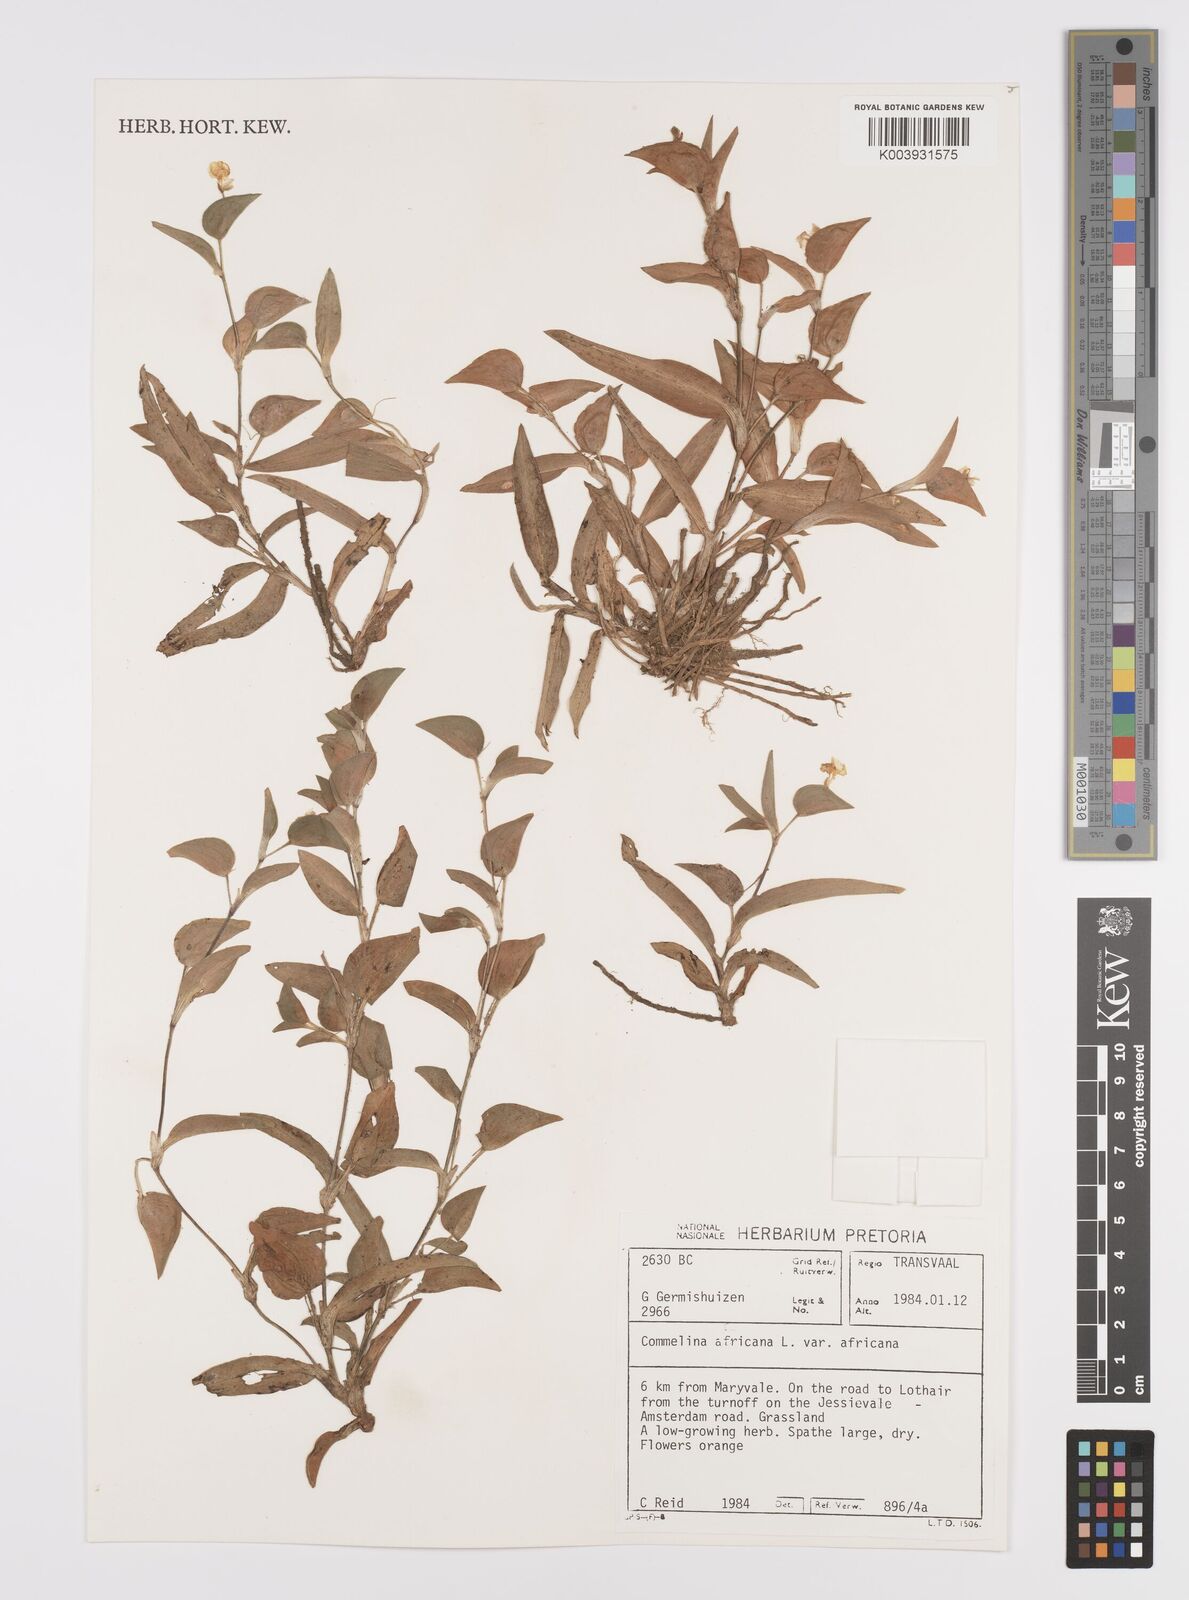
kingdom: Plantae
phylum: Tracheophyta
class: Liliopsida
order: Commelinales
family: Commelinaceae
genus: Commelina
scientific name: Commelina africana
